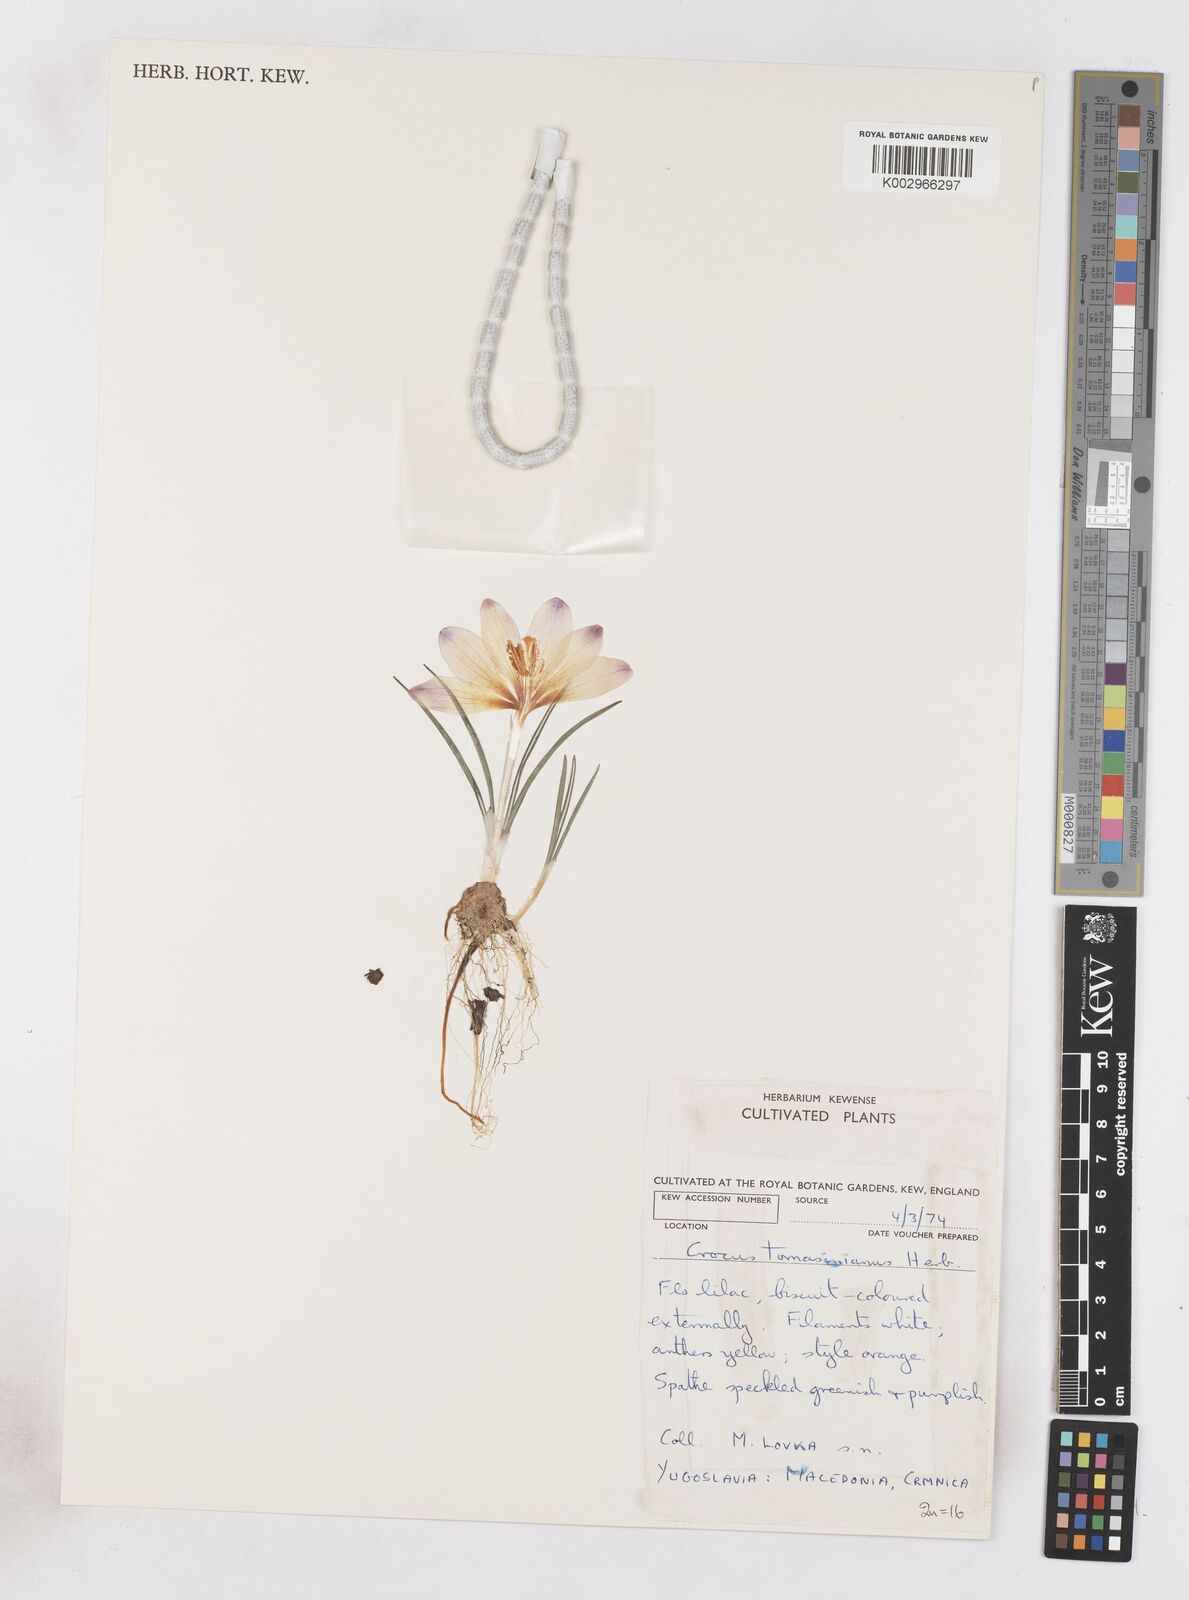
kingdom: Plantae
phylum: Tracheophyta
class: Liliopsida
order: Asparagales
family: Iridaceae
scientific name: Iridaceae
